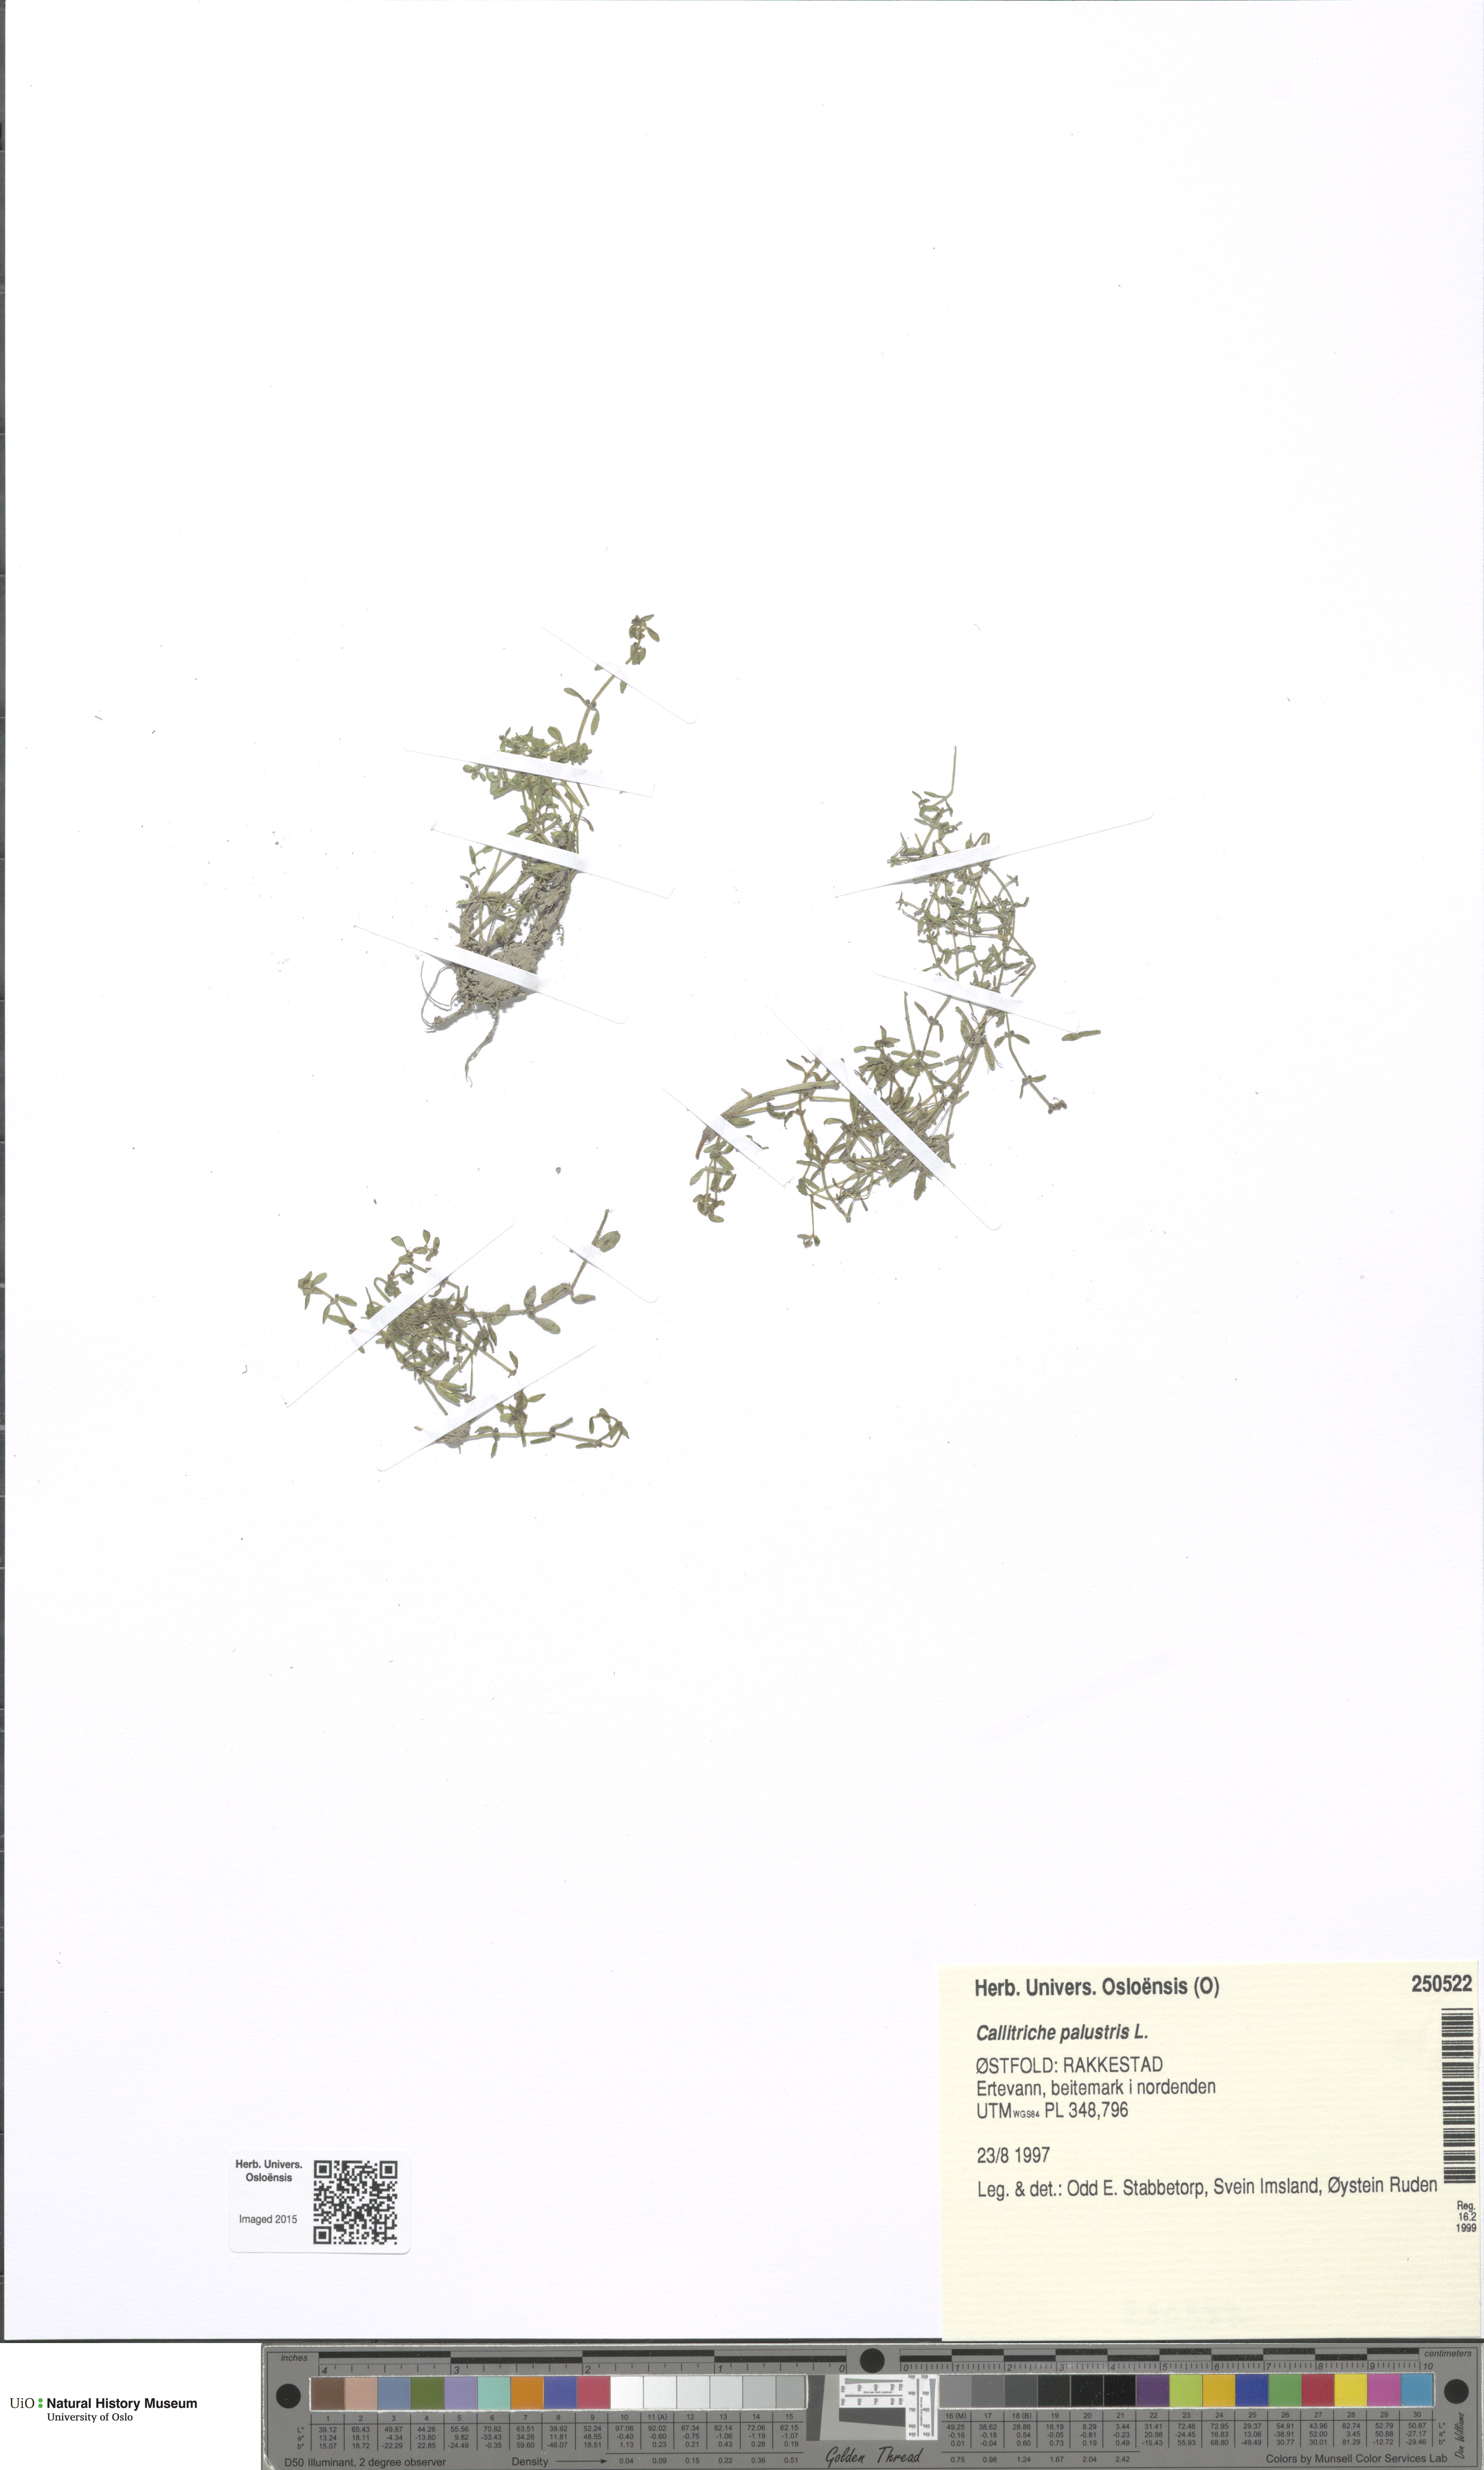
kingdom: Plantae
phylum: Tracheophyta
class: Magnoliopsida
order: Lamiales
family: Plantaginaceae
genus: Callitriche
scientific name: Callitriche palustris
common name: Spring water-starwort
